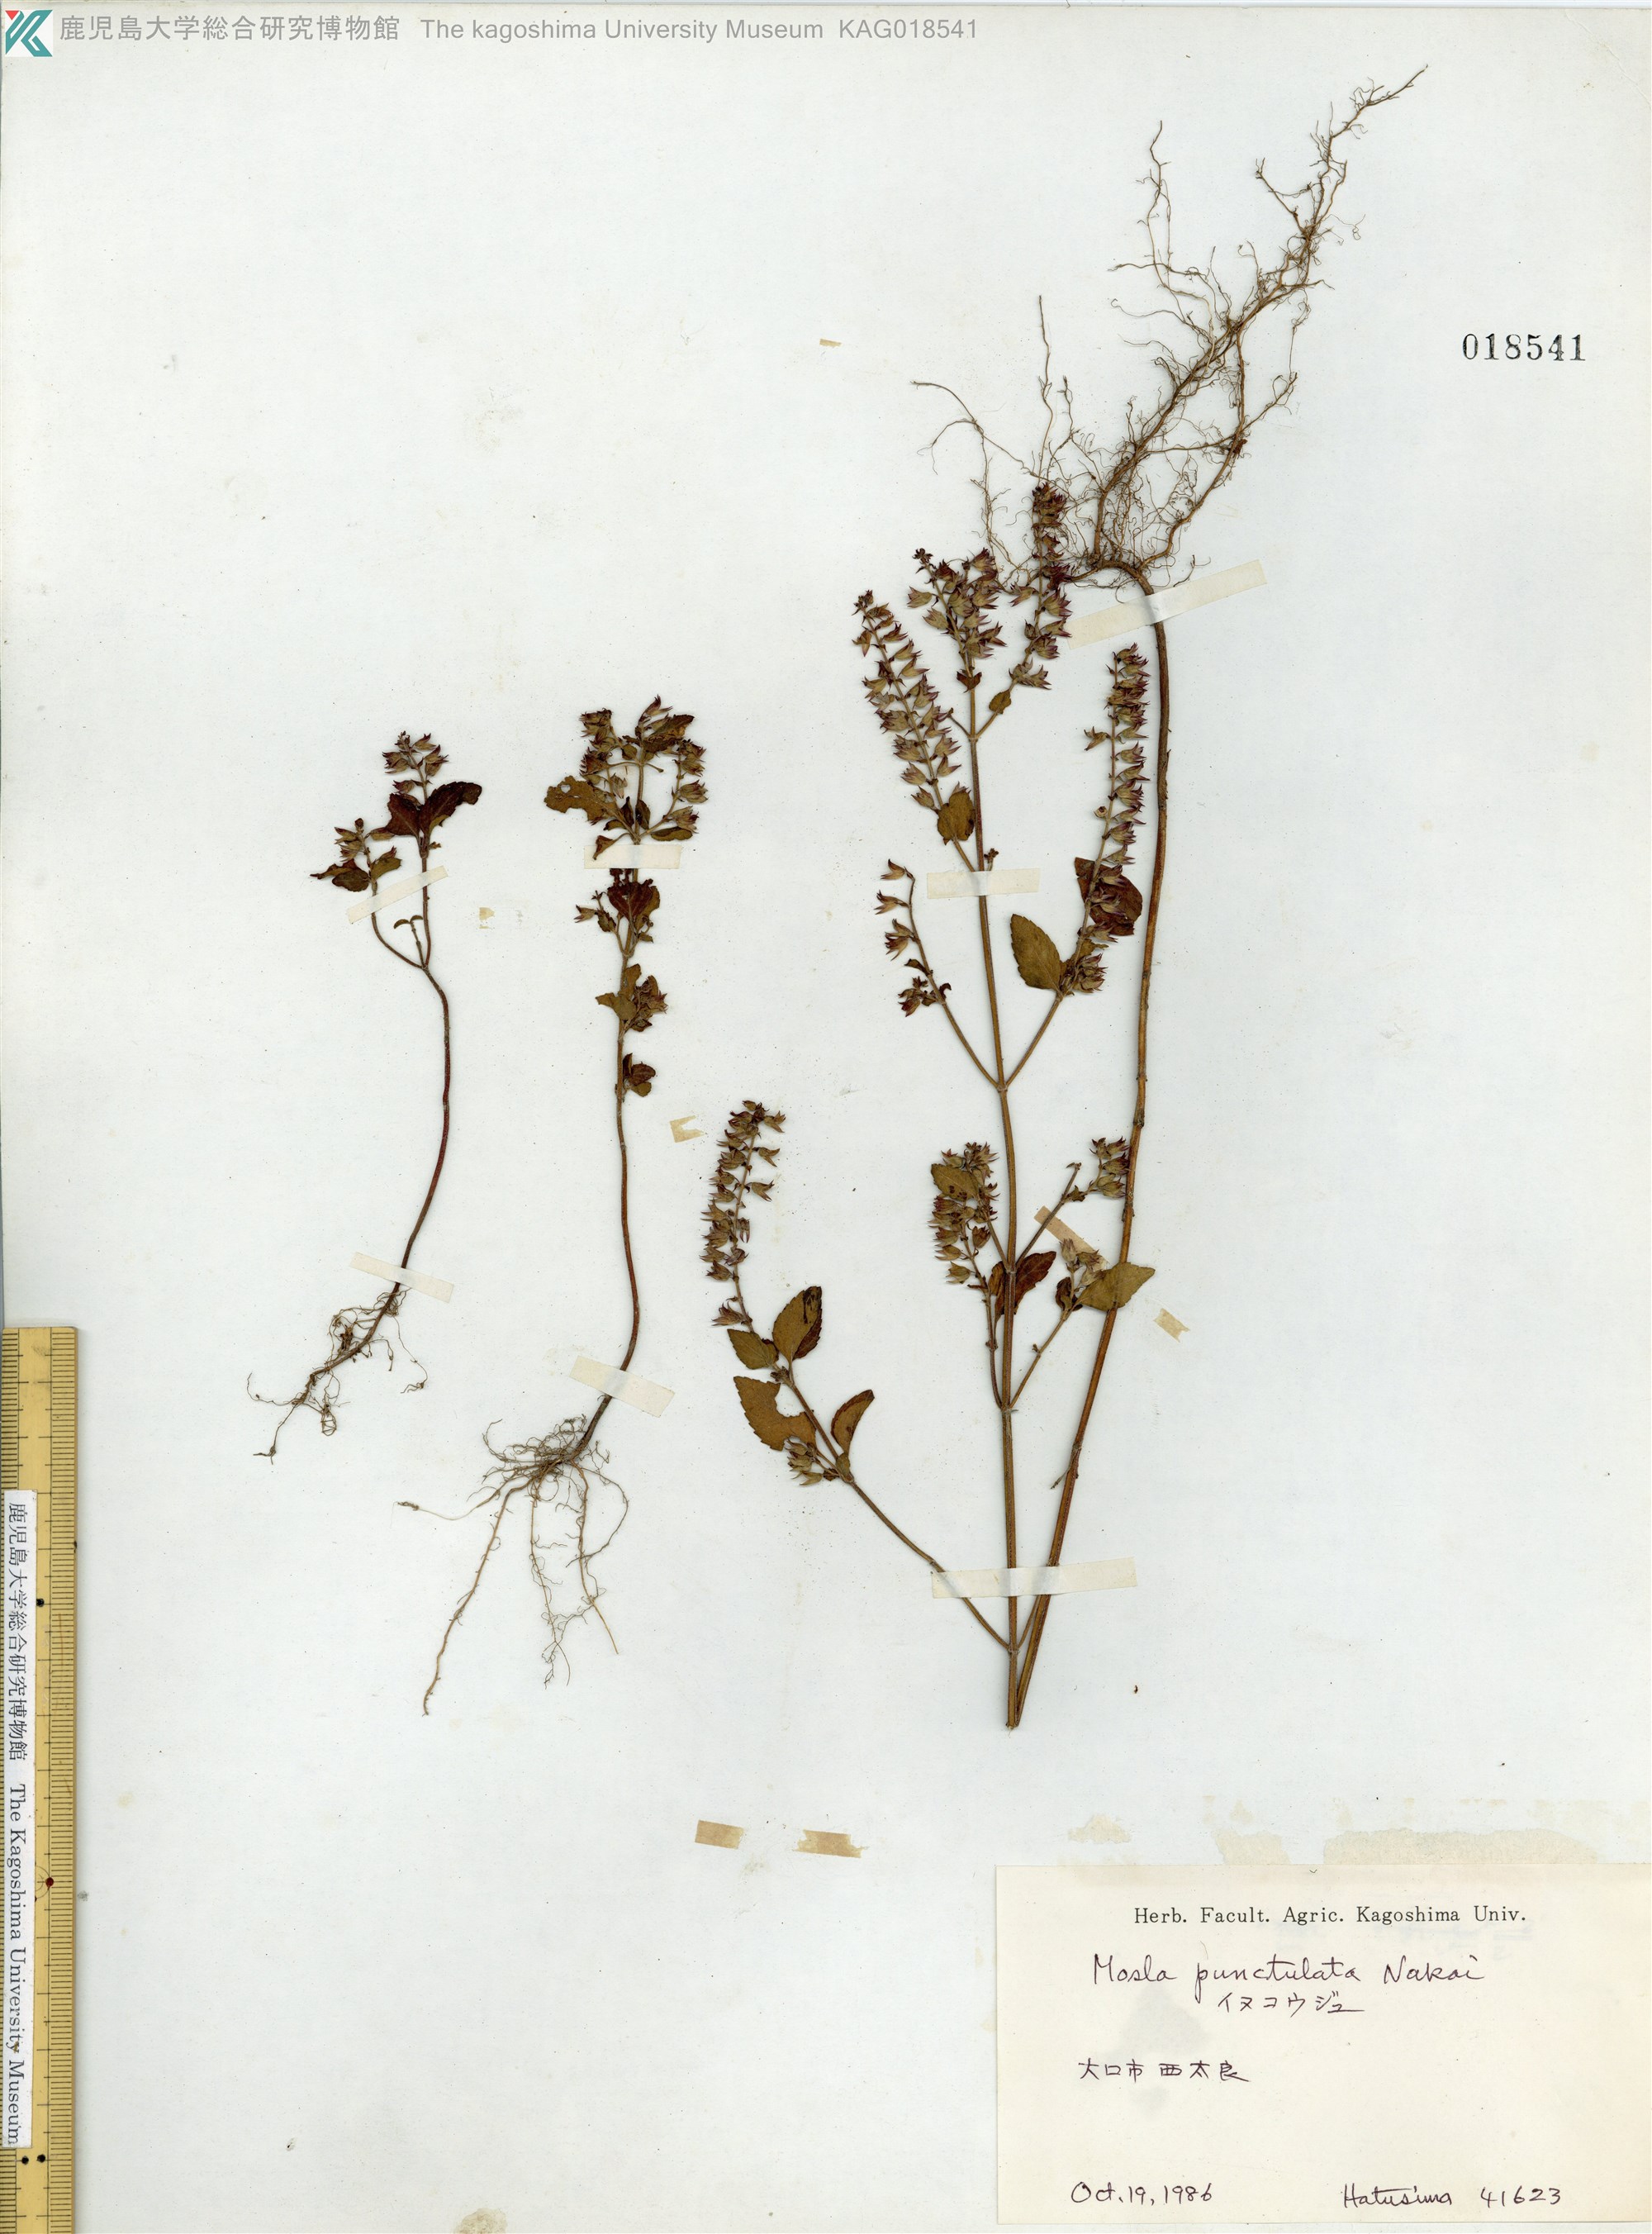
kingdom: Plantae
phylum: Tracheophyta
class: Magnoliopsida
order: Lamiales
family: Lamiaceae
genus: Mosla
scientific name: Mosla scabra
